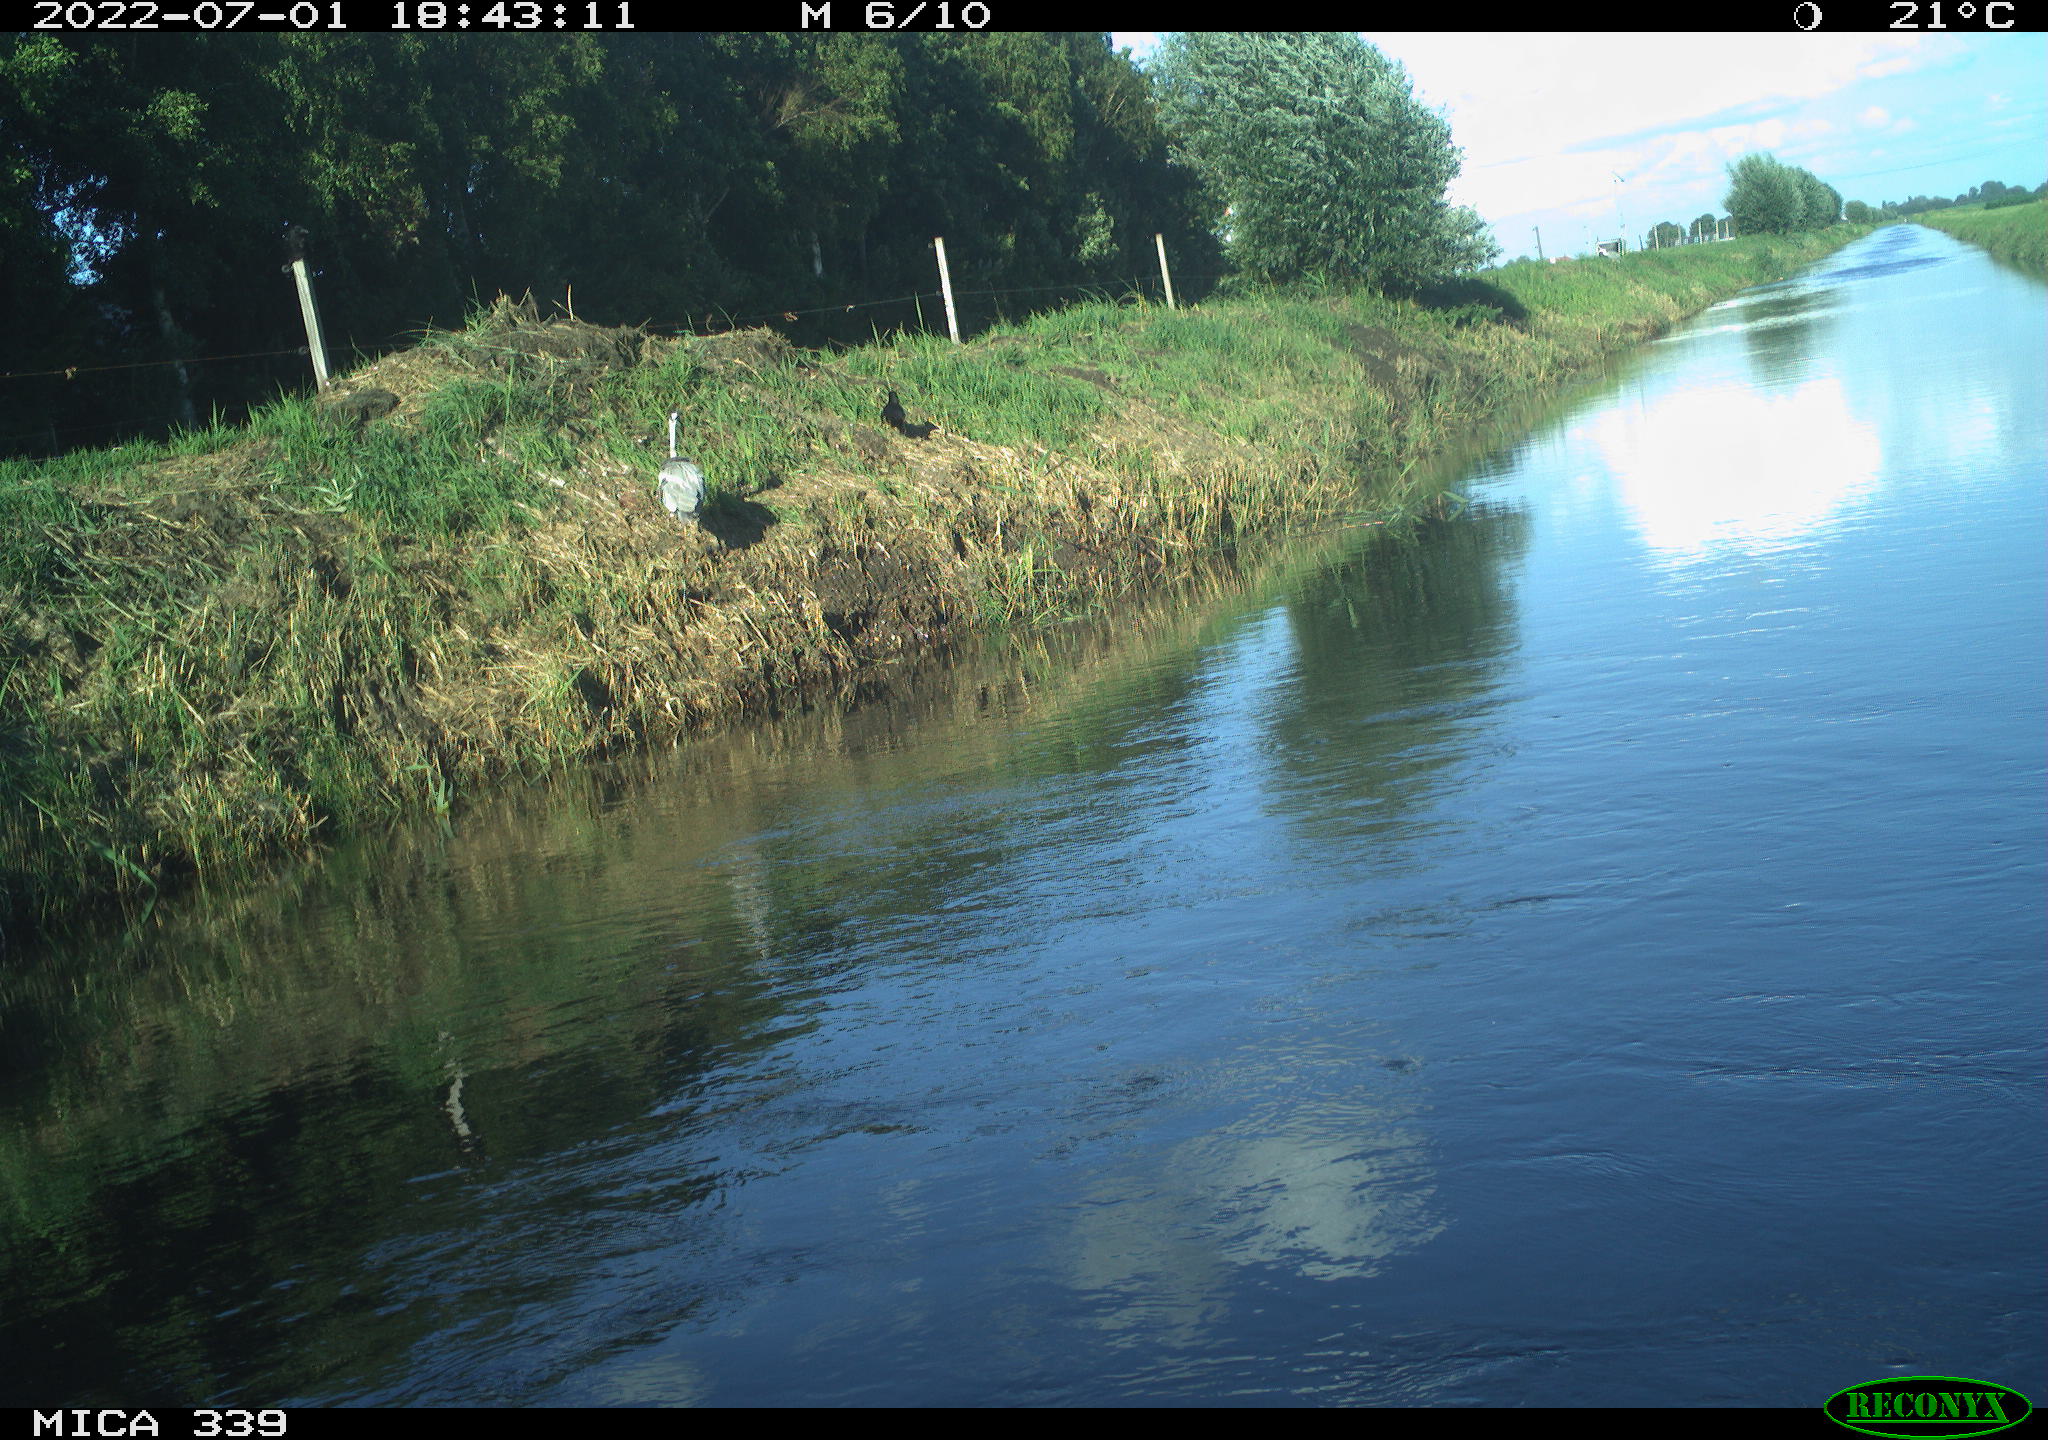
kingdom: Animalia
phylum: Chordata
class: Aves
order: Pelecaniformes
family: Ardeidae
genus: Ardea
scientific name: Ardea cinerea
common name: Grey heron
